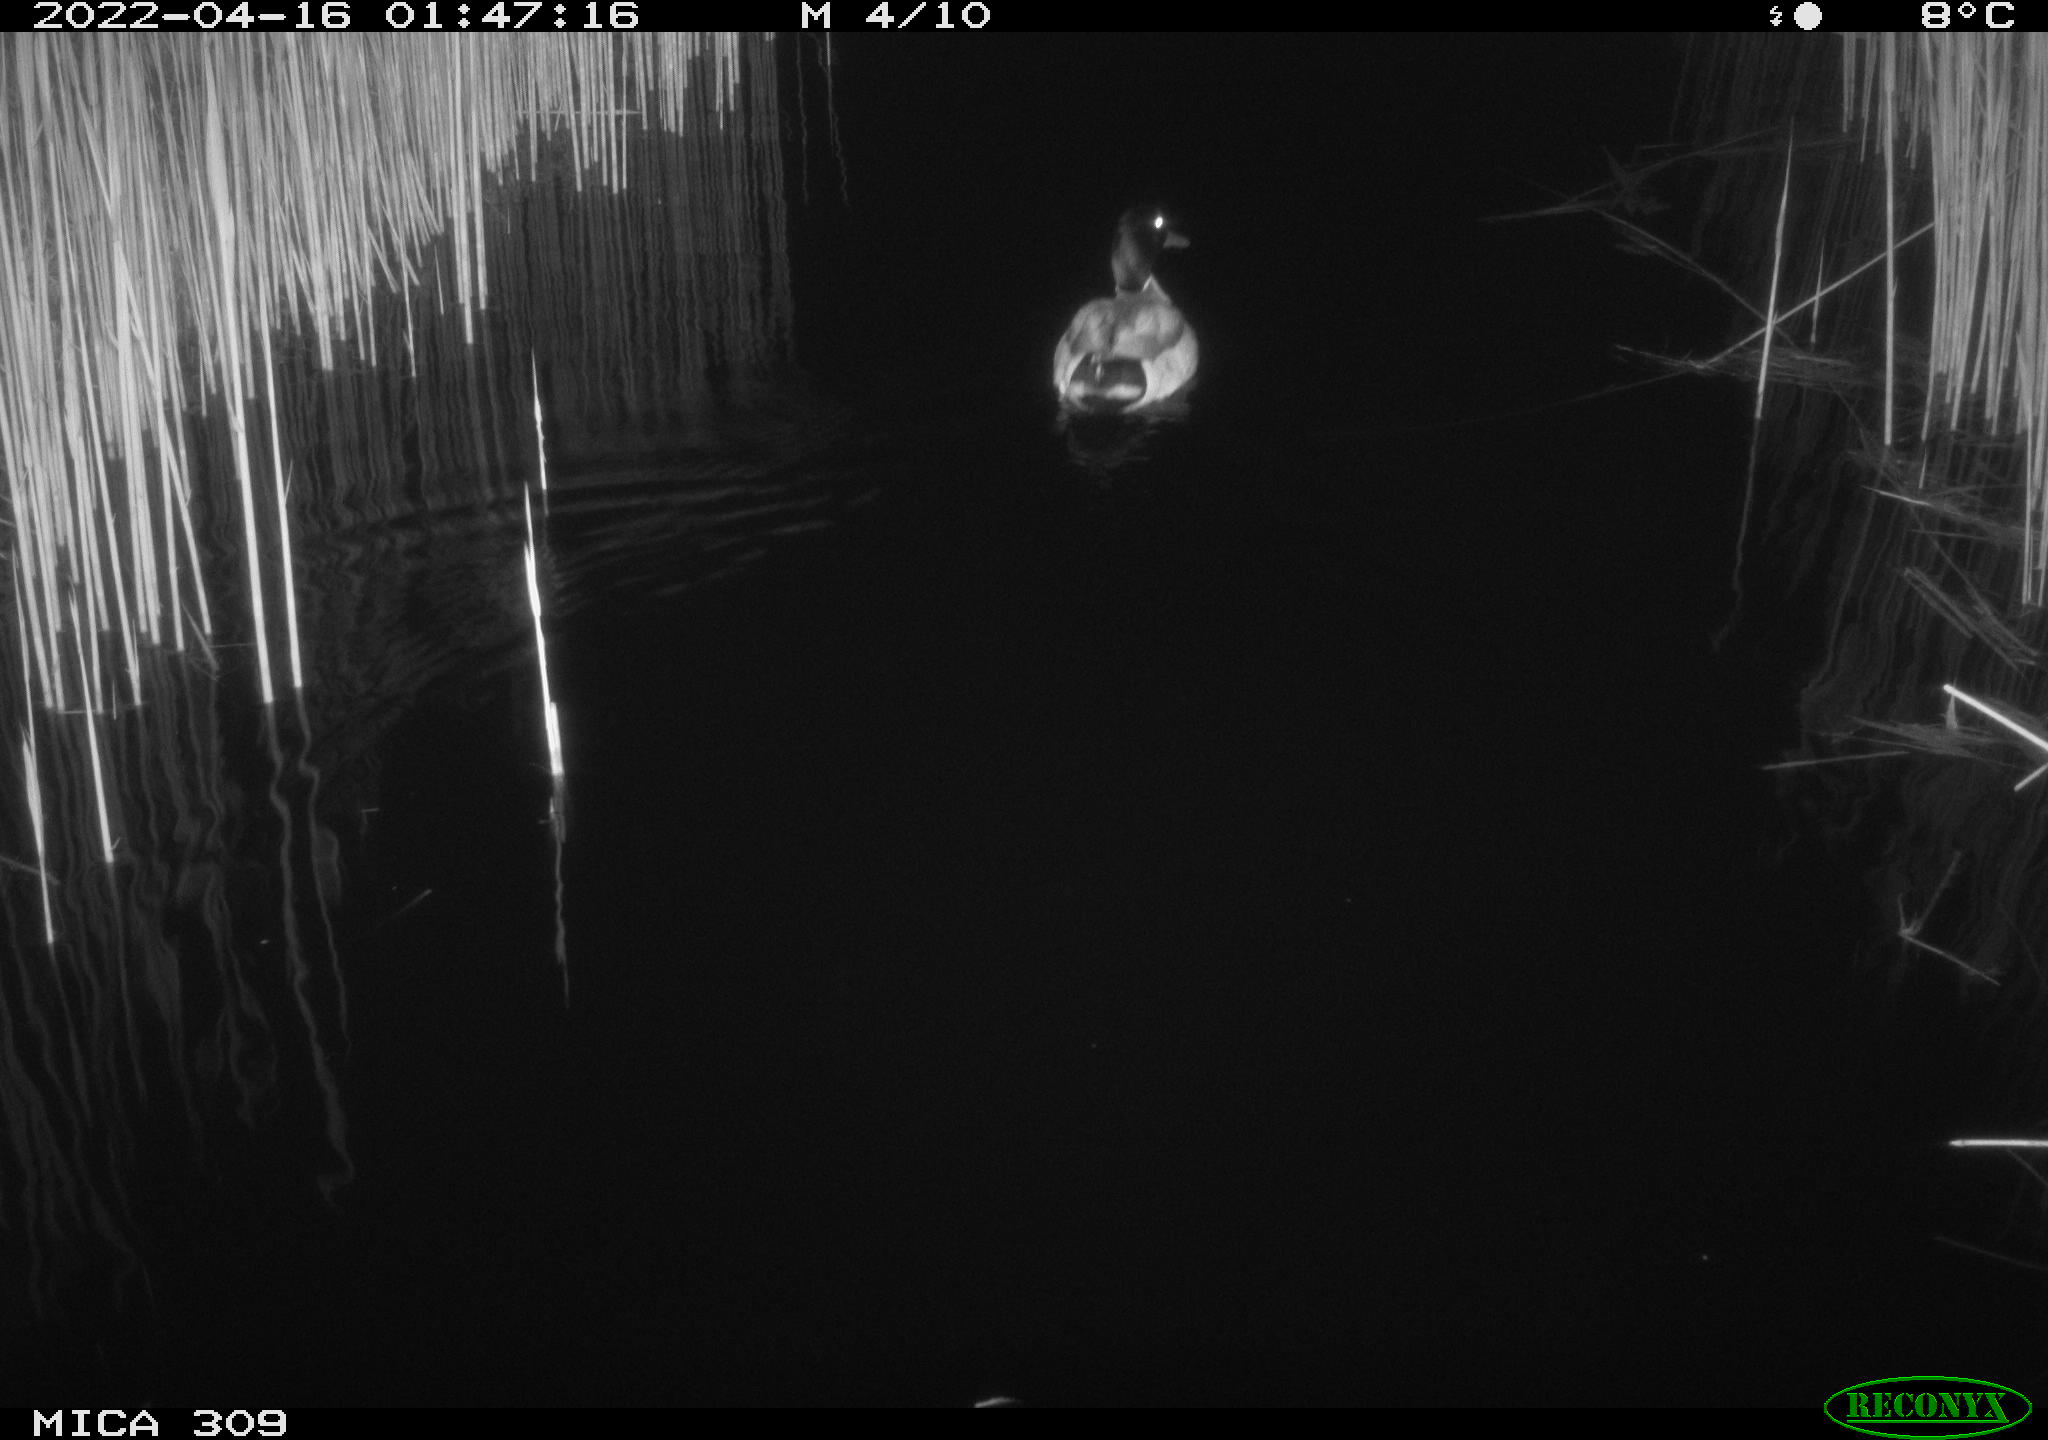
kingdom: Animalia
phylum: Chordata
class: Aves
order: Anseriformes
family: Anatidae
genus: Anas
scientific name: Anas platyrhynchos
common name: Mallard
